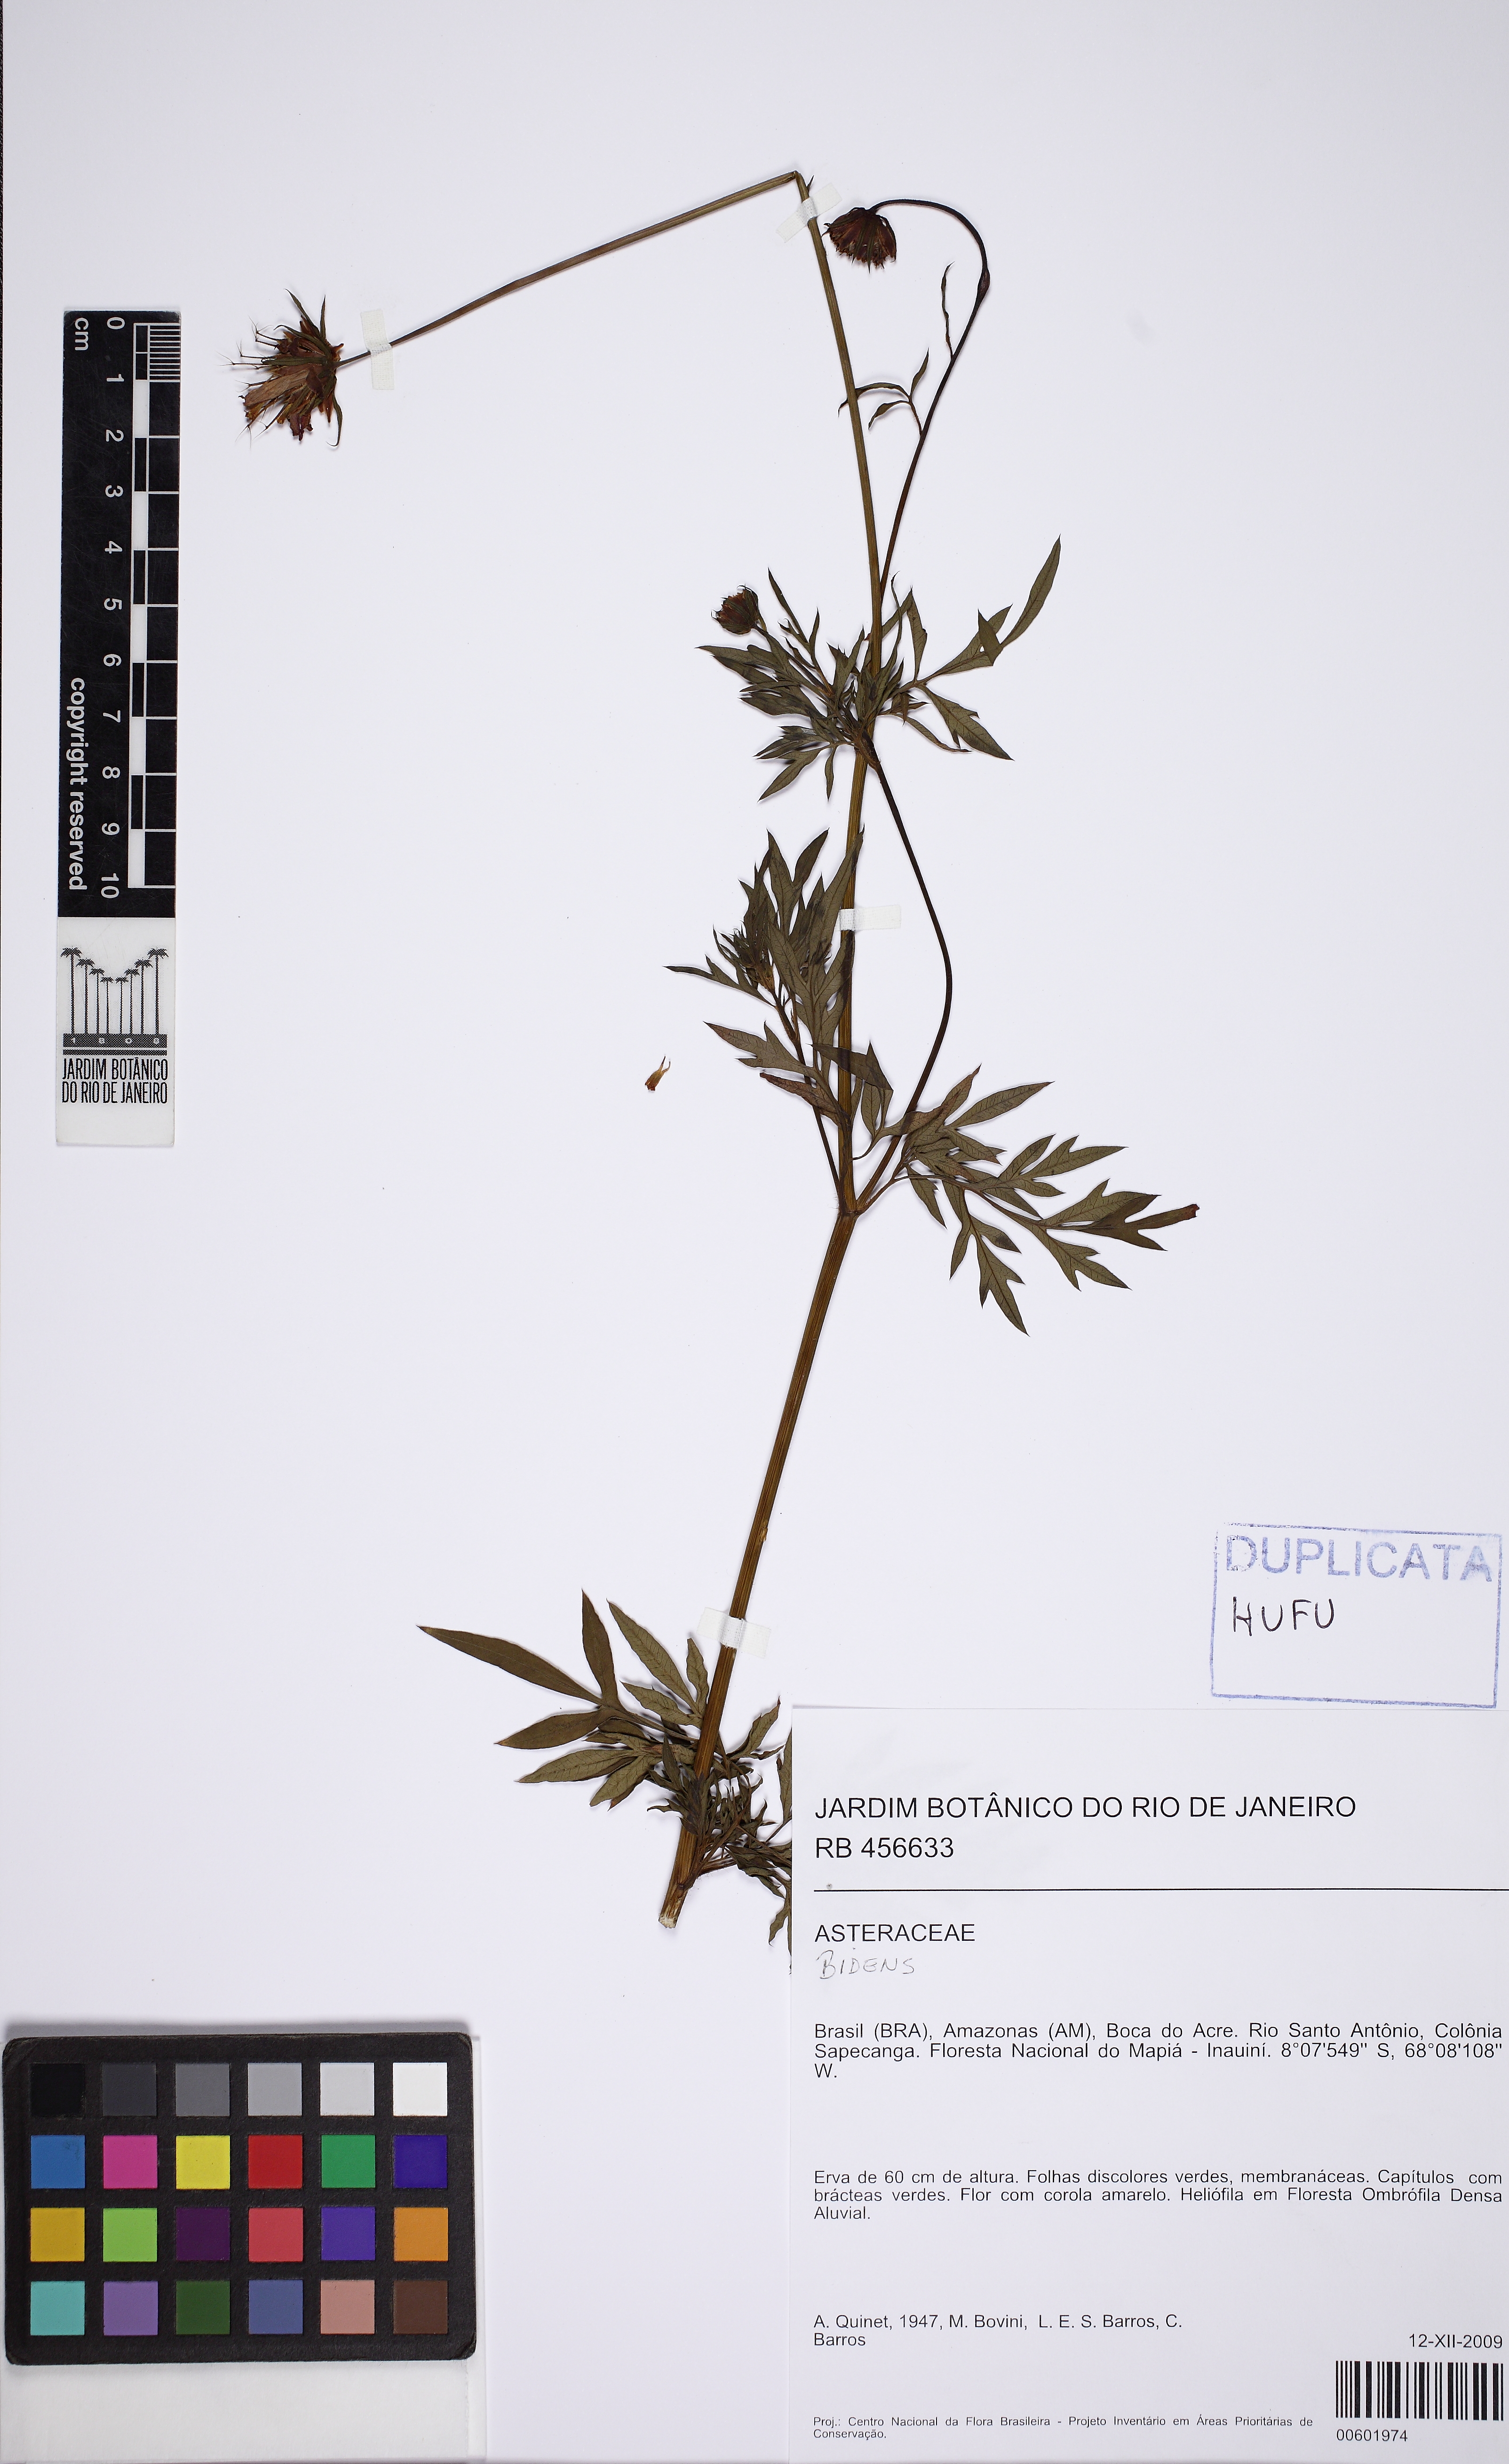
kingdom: Plantae
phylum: Tracheophyta
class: Magnoliopsida
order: Asterales
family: Asteraceae
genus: Bidens
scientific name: Bidens
